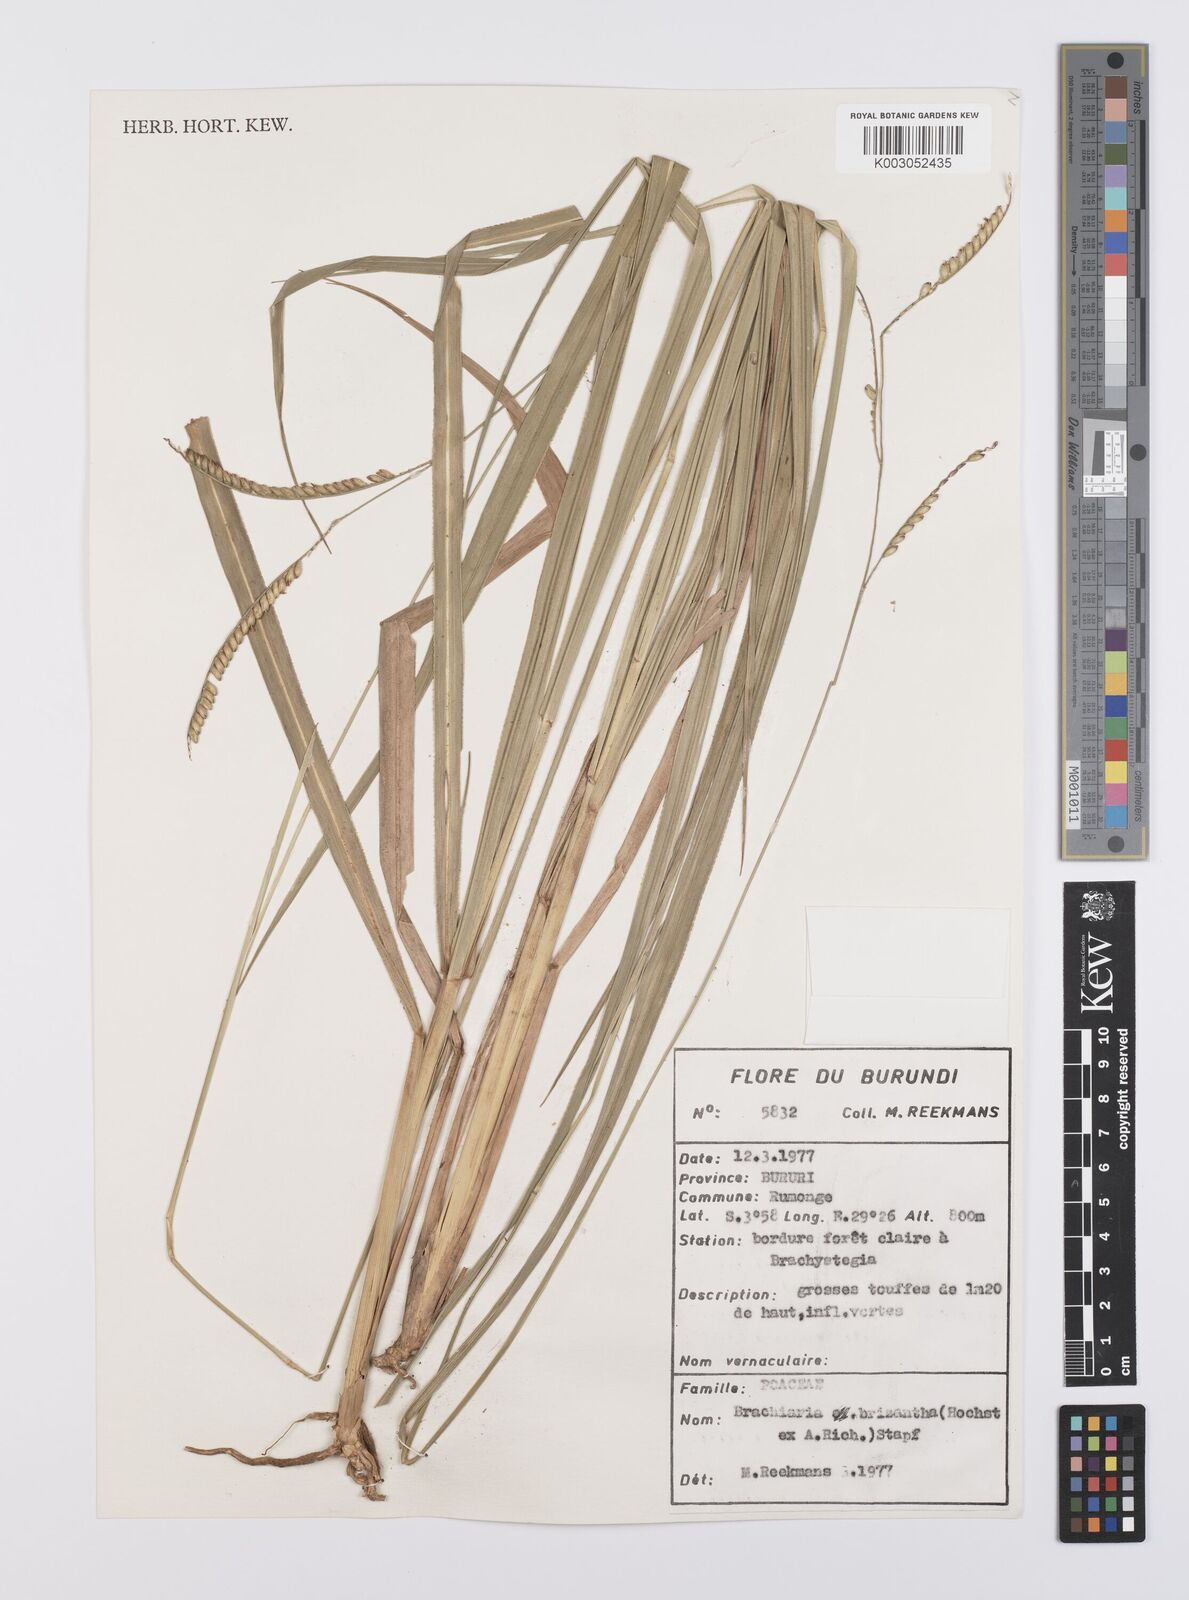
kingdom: Plantae
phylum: Tracheophyta
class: Liliopsida
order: Poales
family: Poaceae
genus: Urochloa
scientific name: Urochloa brizantha
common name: Palisade signalgrass
